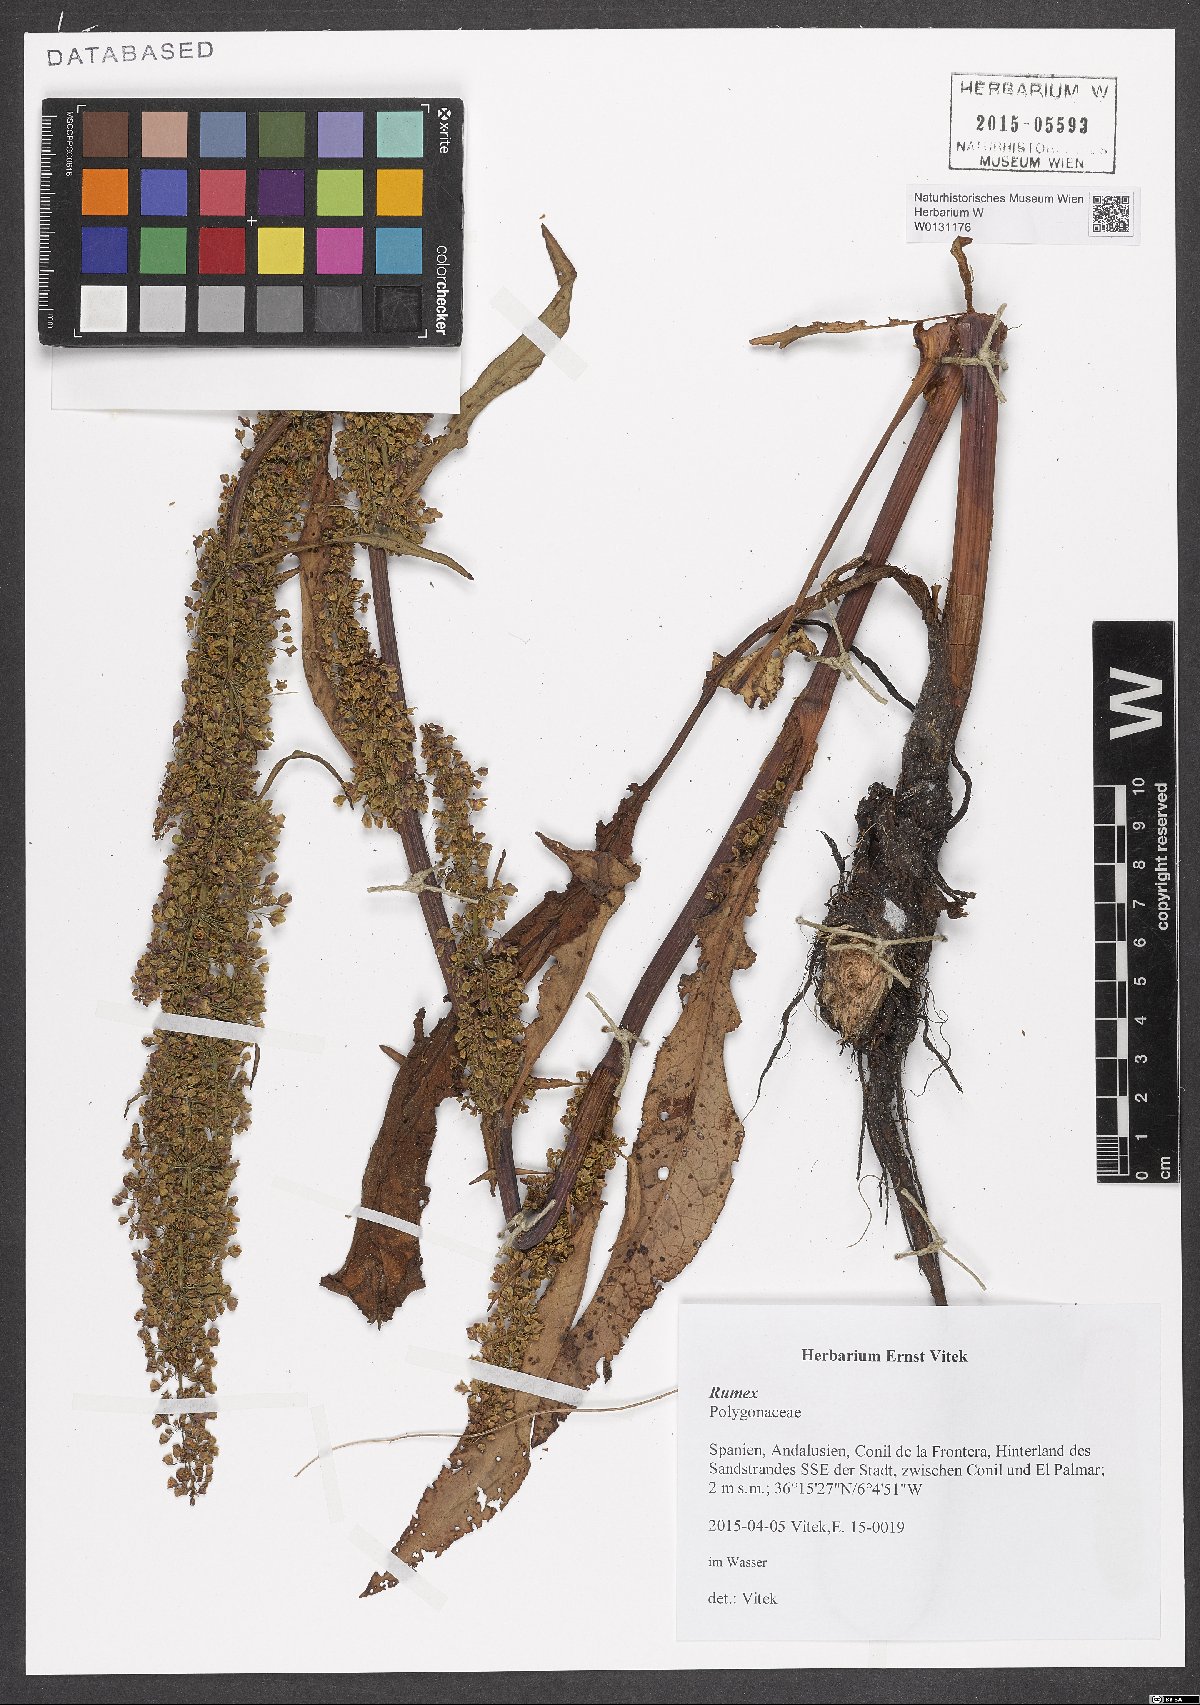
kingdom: Plantae
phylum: Tracheophyta
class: Magnoliopsida
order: Caryophyllales
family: Polygonaceae
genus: Rumex
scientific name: Rumex
